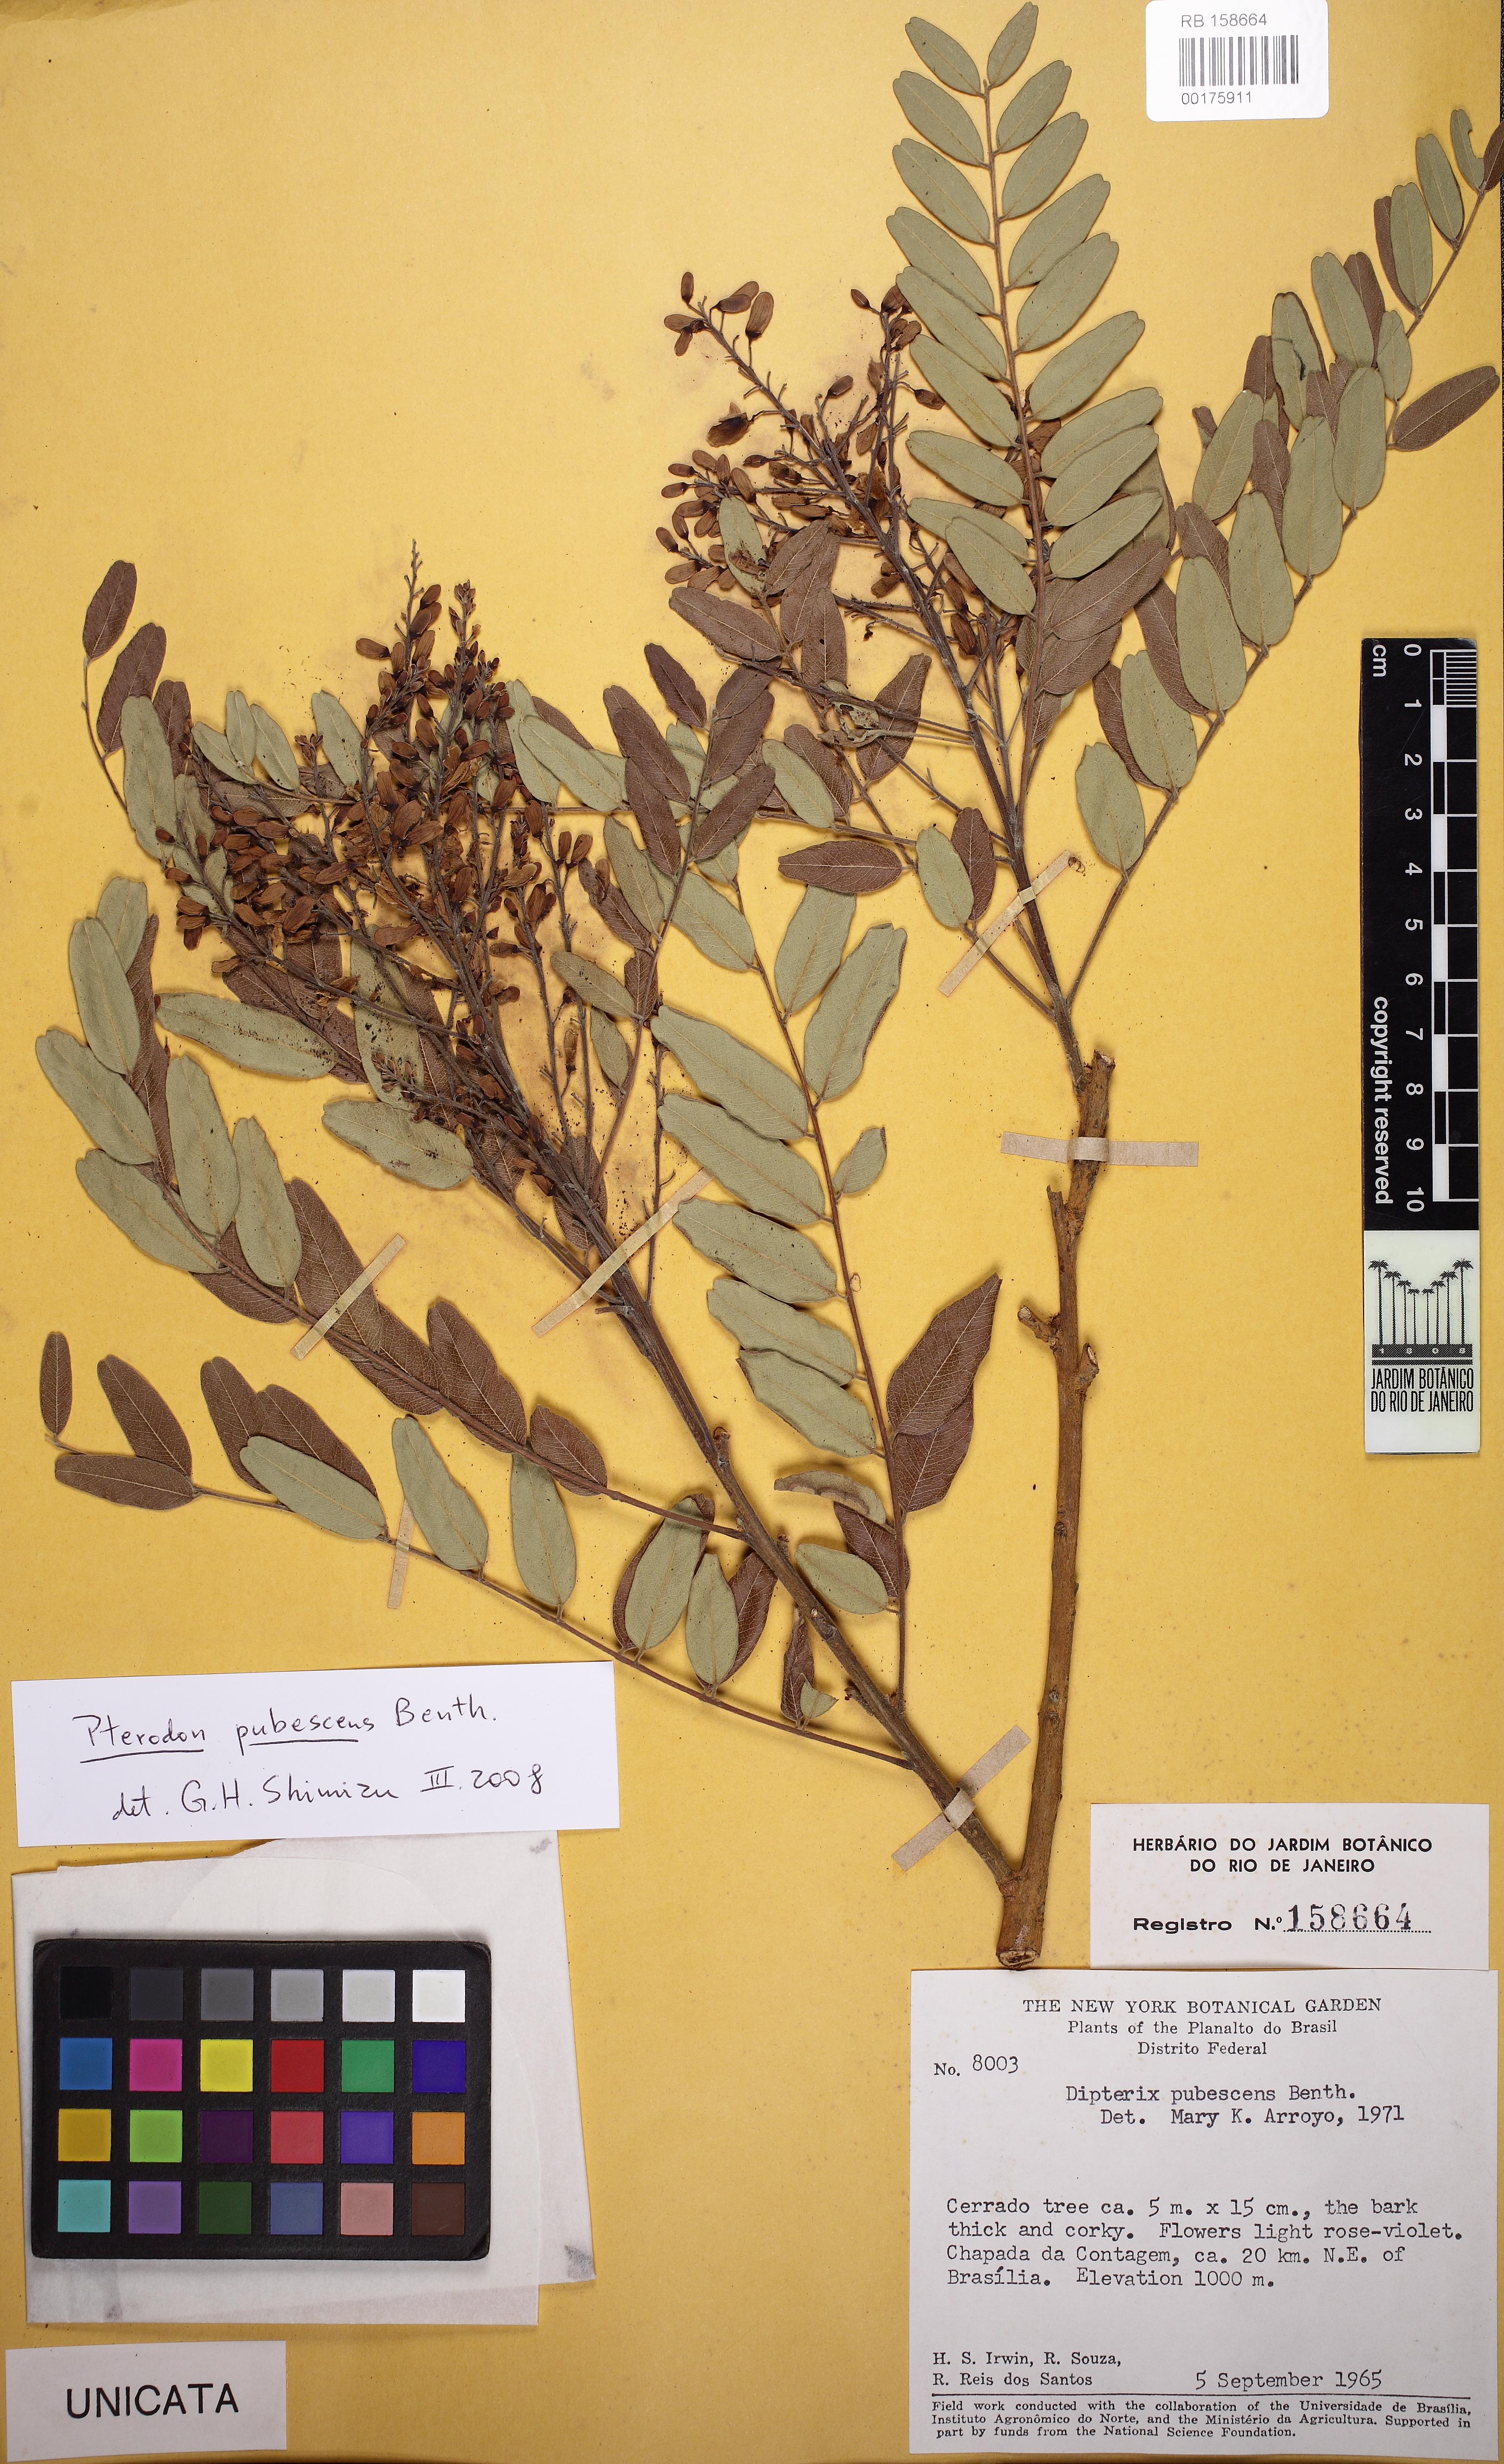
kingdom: Plantae
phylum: Tracheophyta
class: Magnoliopsida
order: Fabales
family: Fabaceae
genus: Pterodon
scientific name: Pterodon emarginatus
